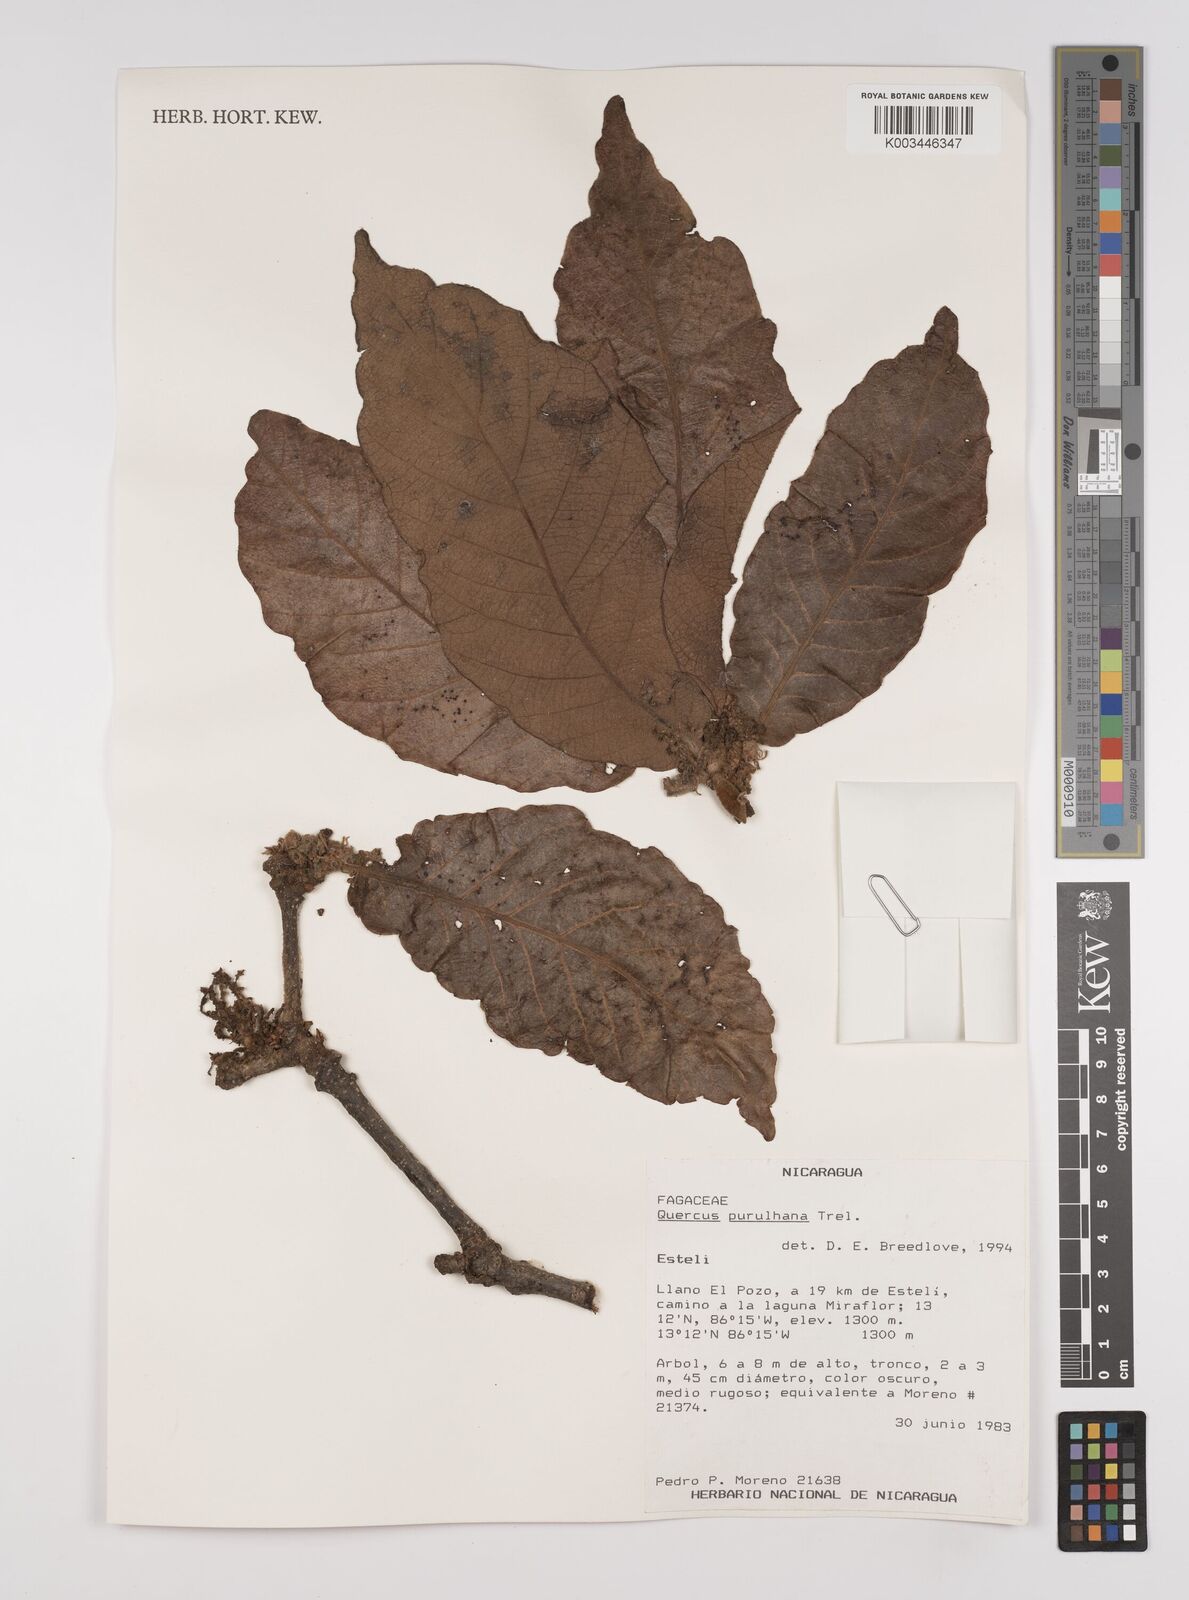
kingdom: Plantae
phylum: Tracheophyta
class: Magnoliopsida
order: Fagales
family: Fagaceae
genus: Quercus
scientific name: Quercus purulhana
